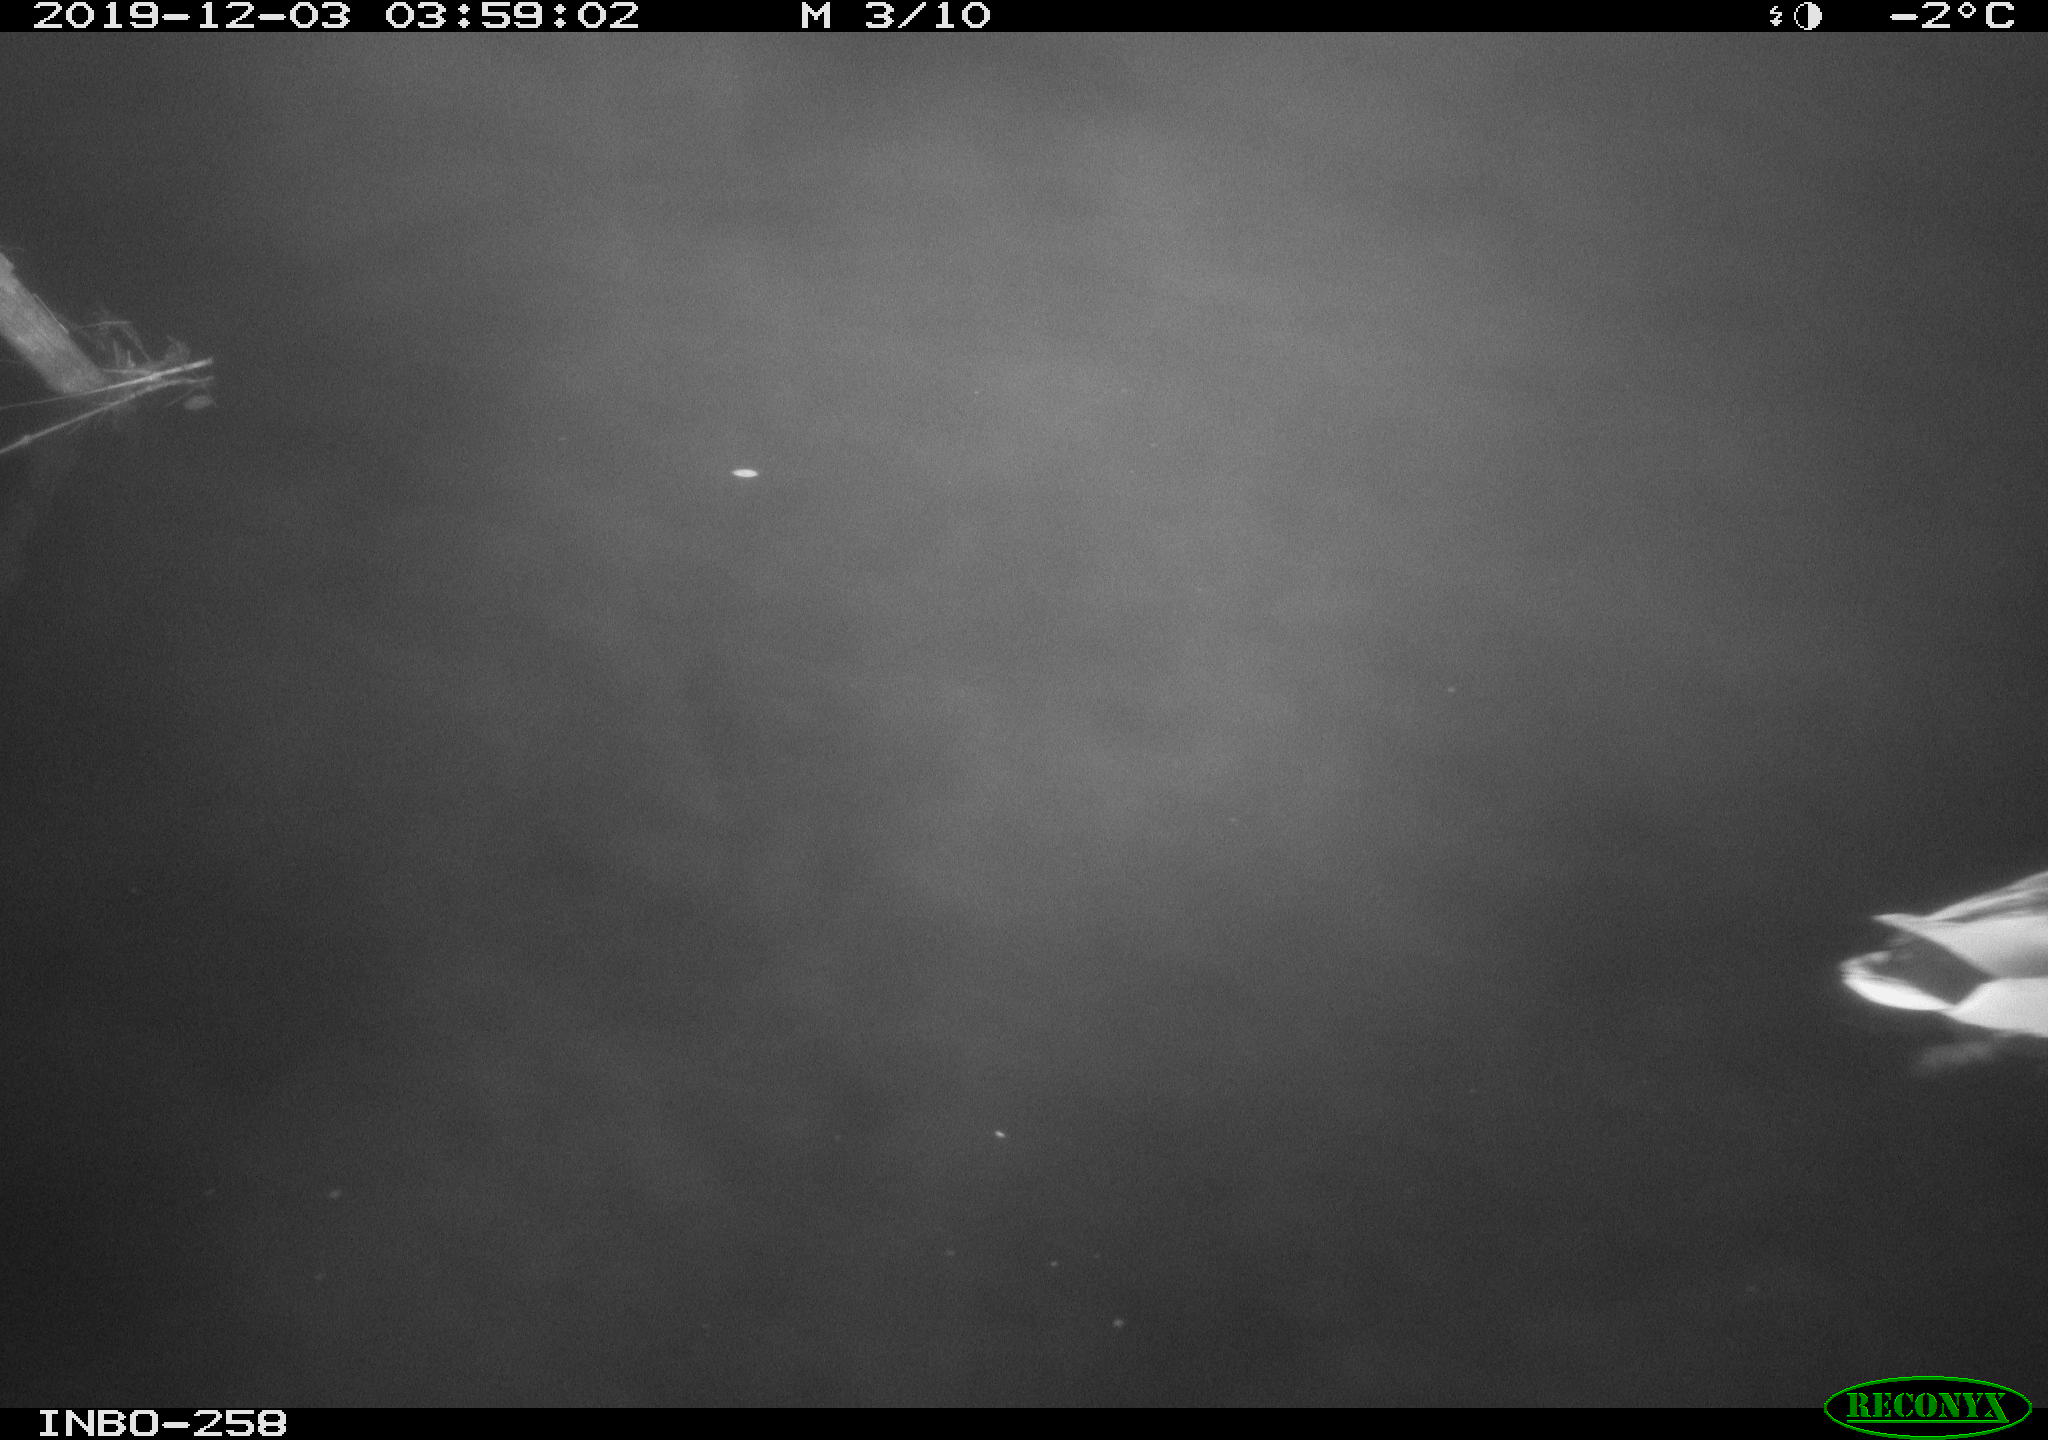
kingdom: Animalia
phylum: Chordata
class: Aves
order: Anseriformes
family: Anatidae
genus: Anas
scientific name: Anas platyrhynchos
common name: Mallard
